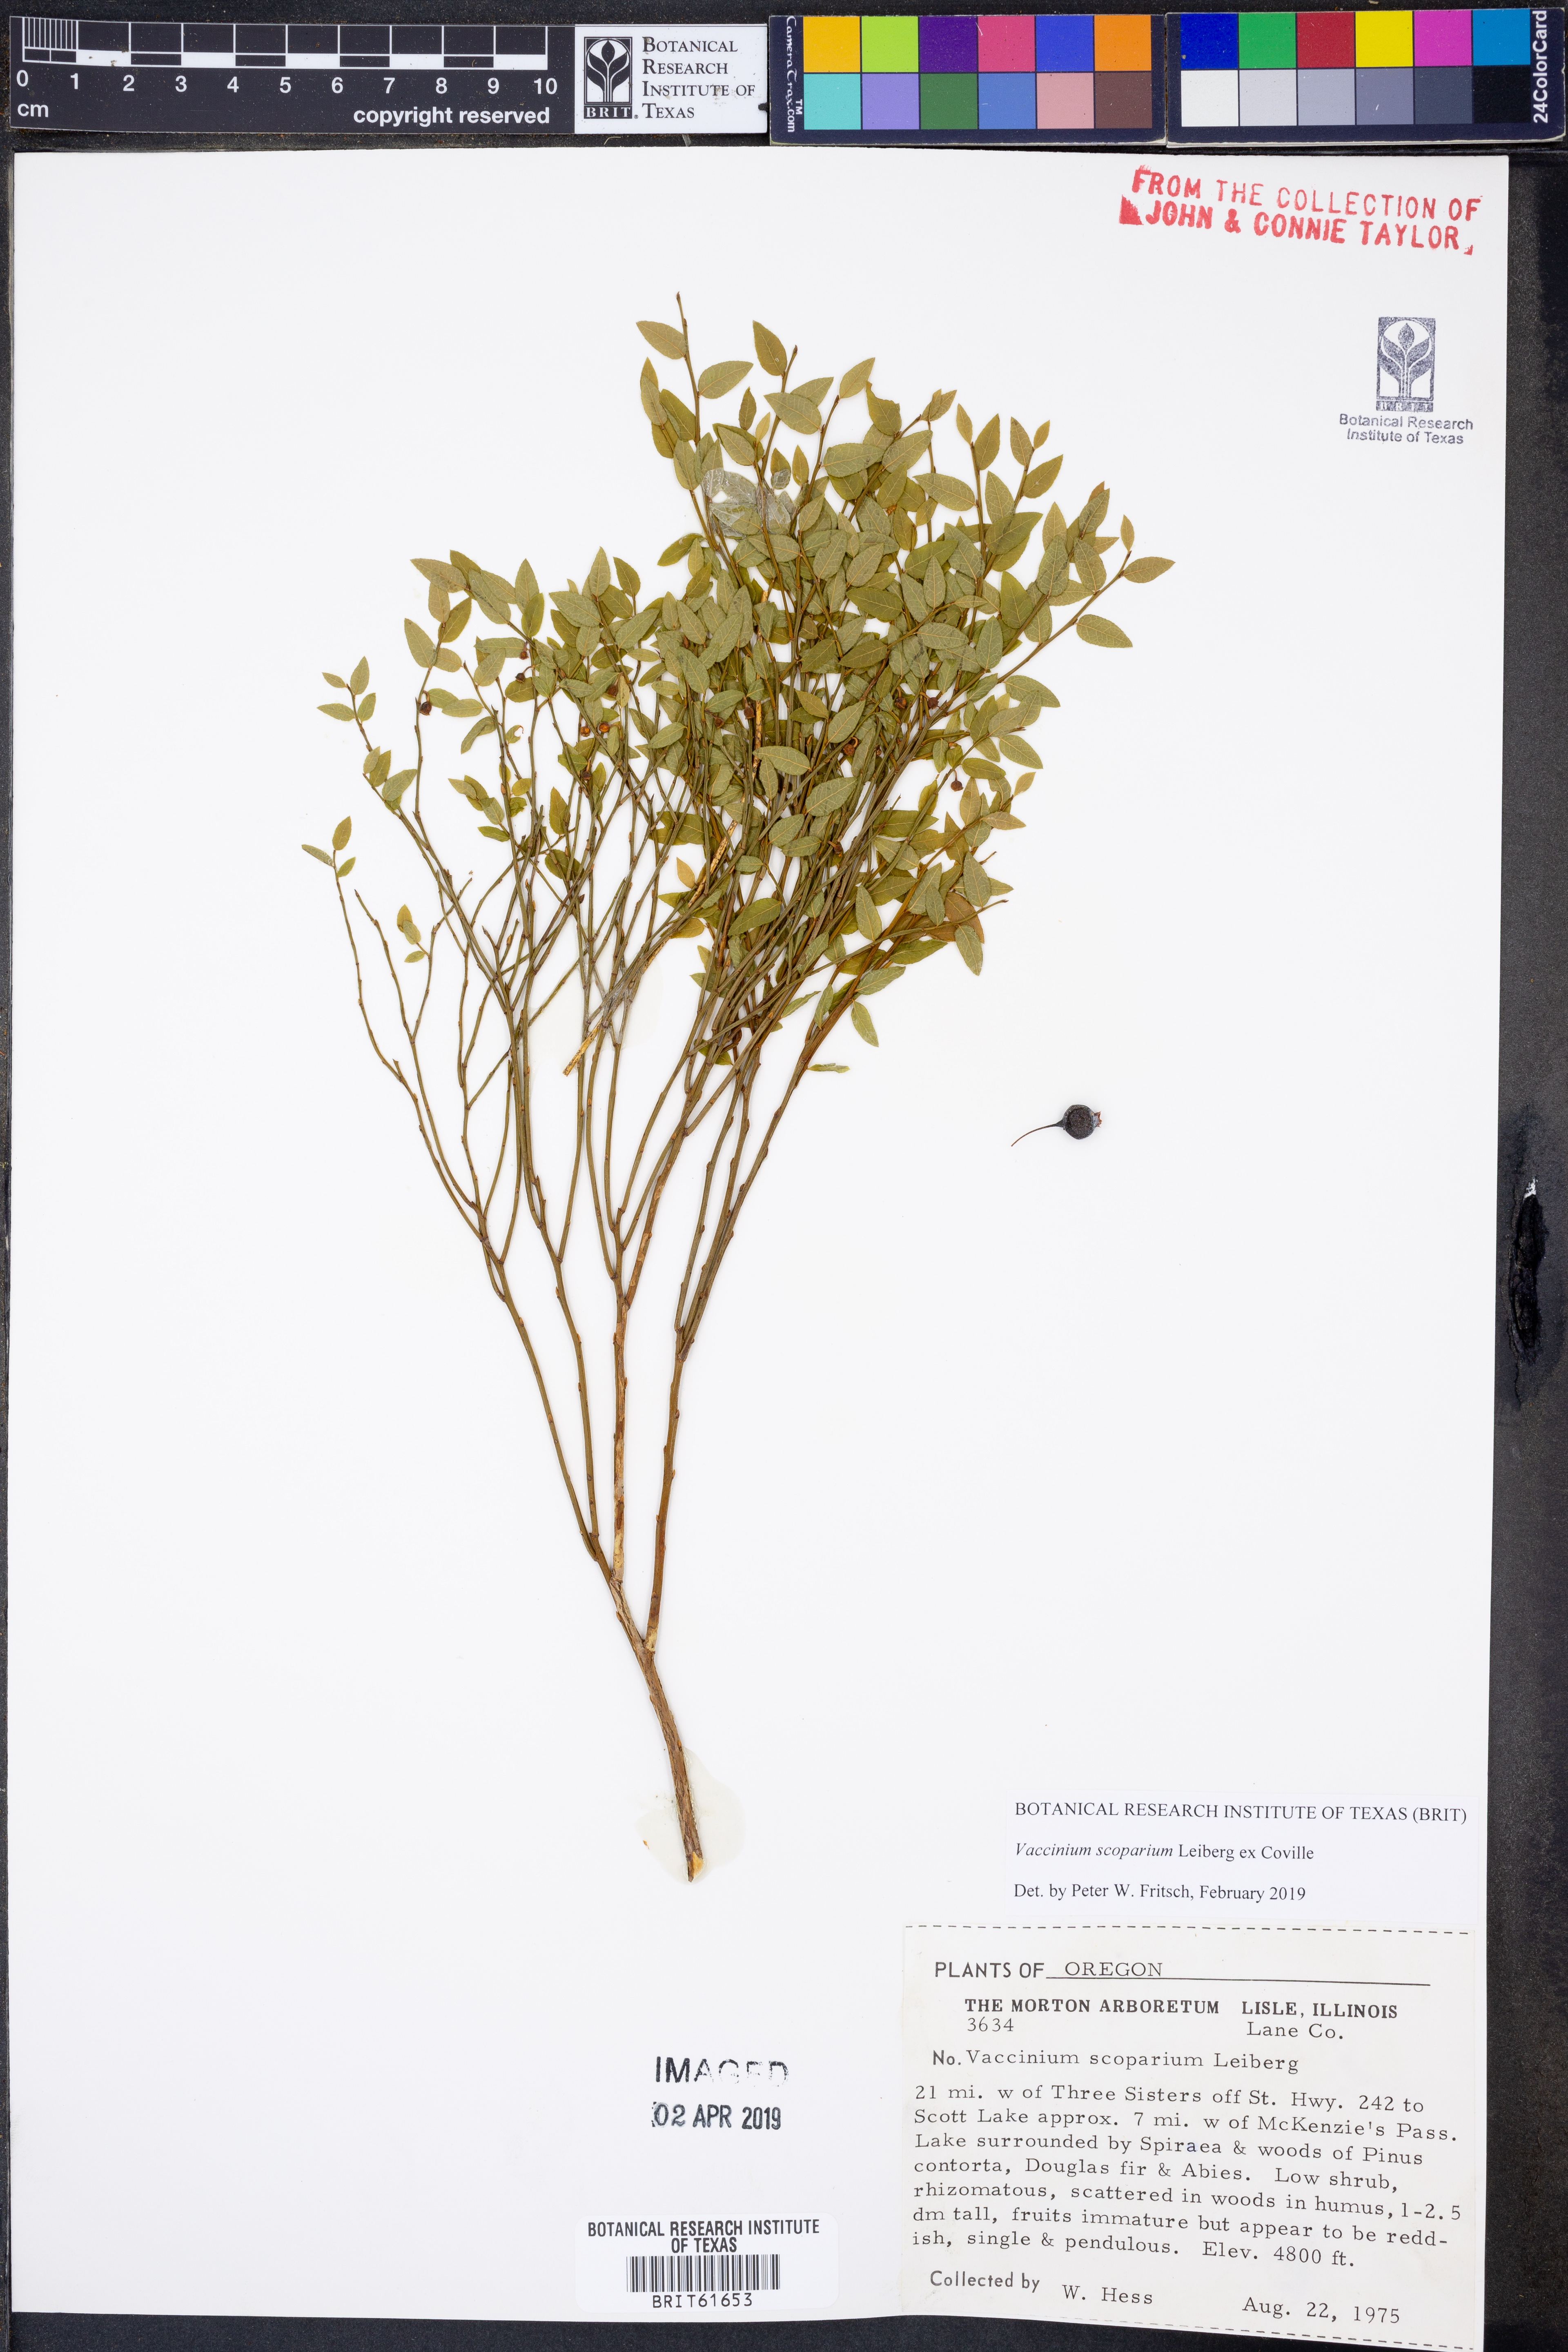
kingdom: Plantae
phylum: Tracheophyta
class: Magnoliopsida
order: Ericales
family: Ericaceae
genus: Vaccinium
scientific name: Vaccinium scoparium
